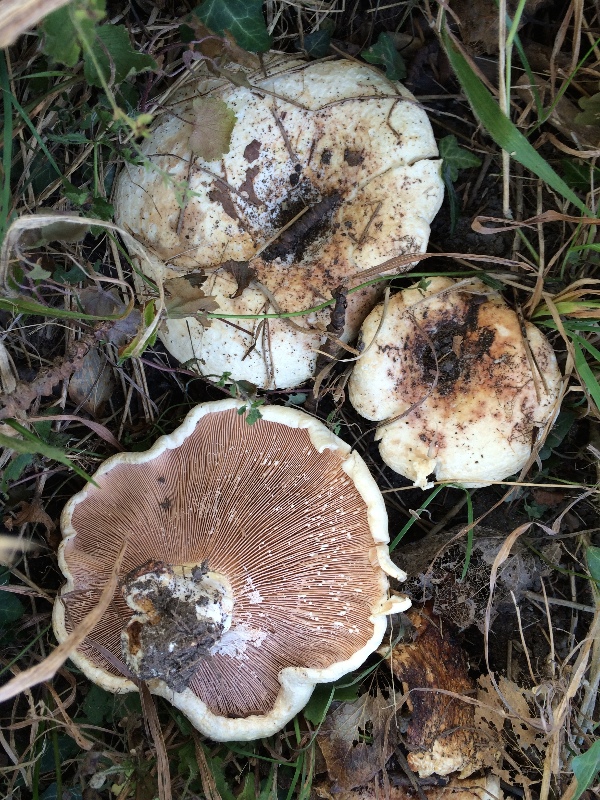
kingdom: Fungi
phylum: Basidiomycota
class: Agaricomycetes
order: Russulales
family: Russulaceae
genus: Lactarius
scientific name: Lactarius controversus
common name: rosabladet mælkehat
